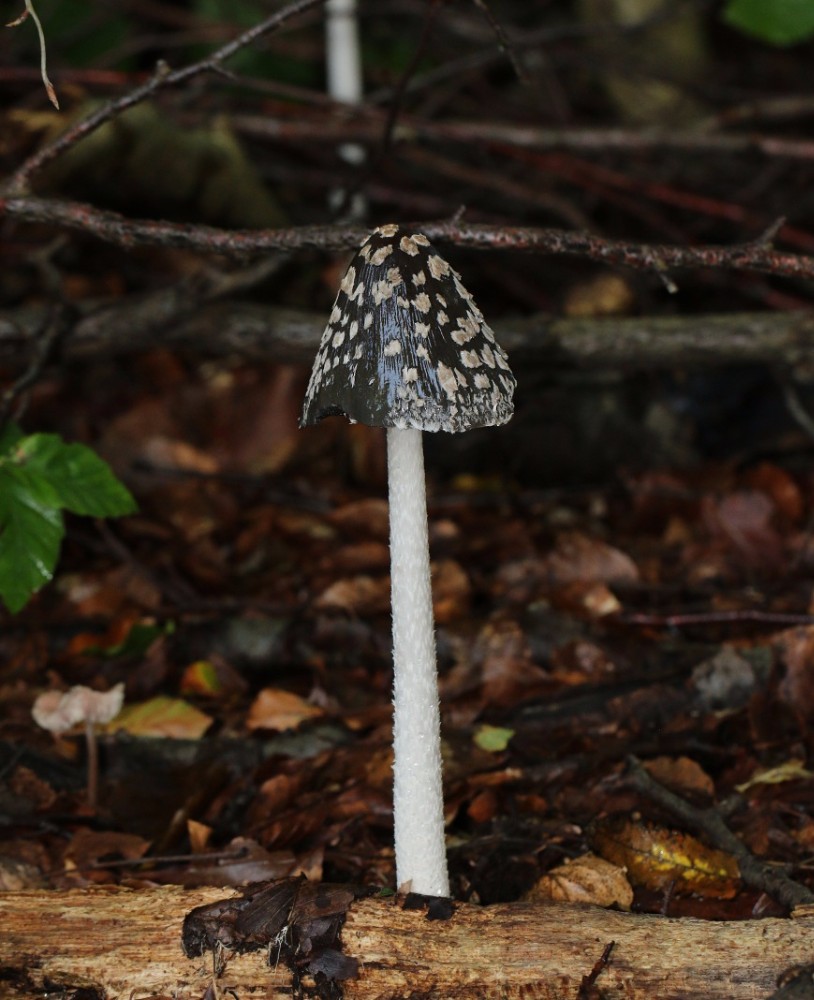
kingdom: Fungi
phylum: Basidiomycota
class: Agaricomycetes
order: Agaricales
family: Psathyrellaceae
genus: Coprinopsis
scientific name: Coprinopsis picacea
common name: skade-blækhat
